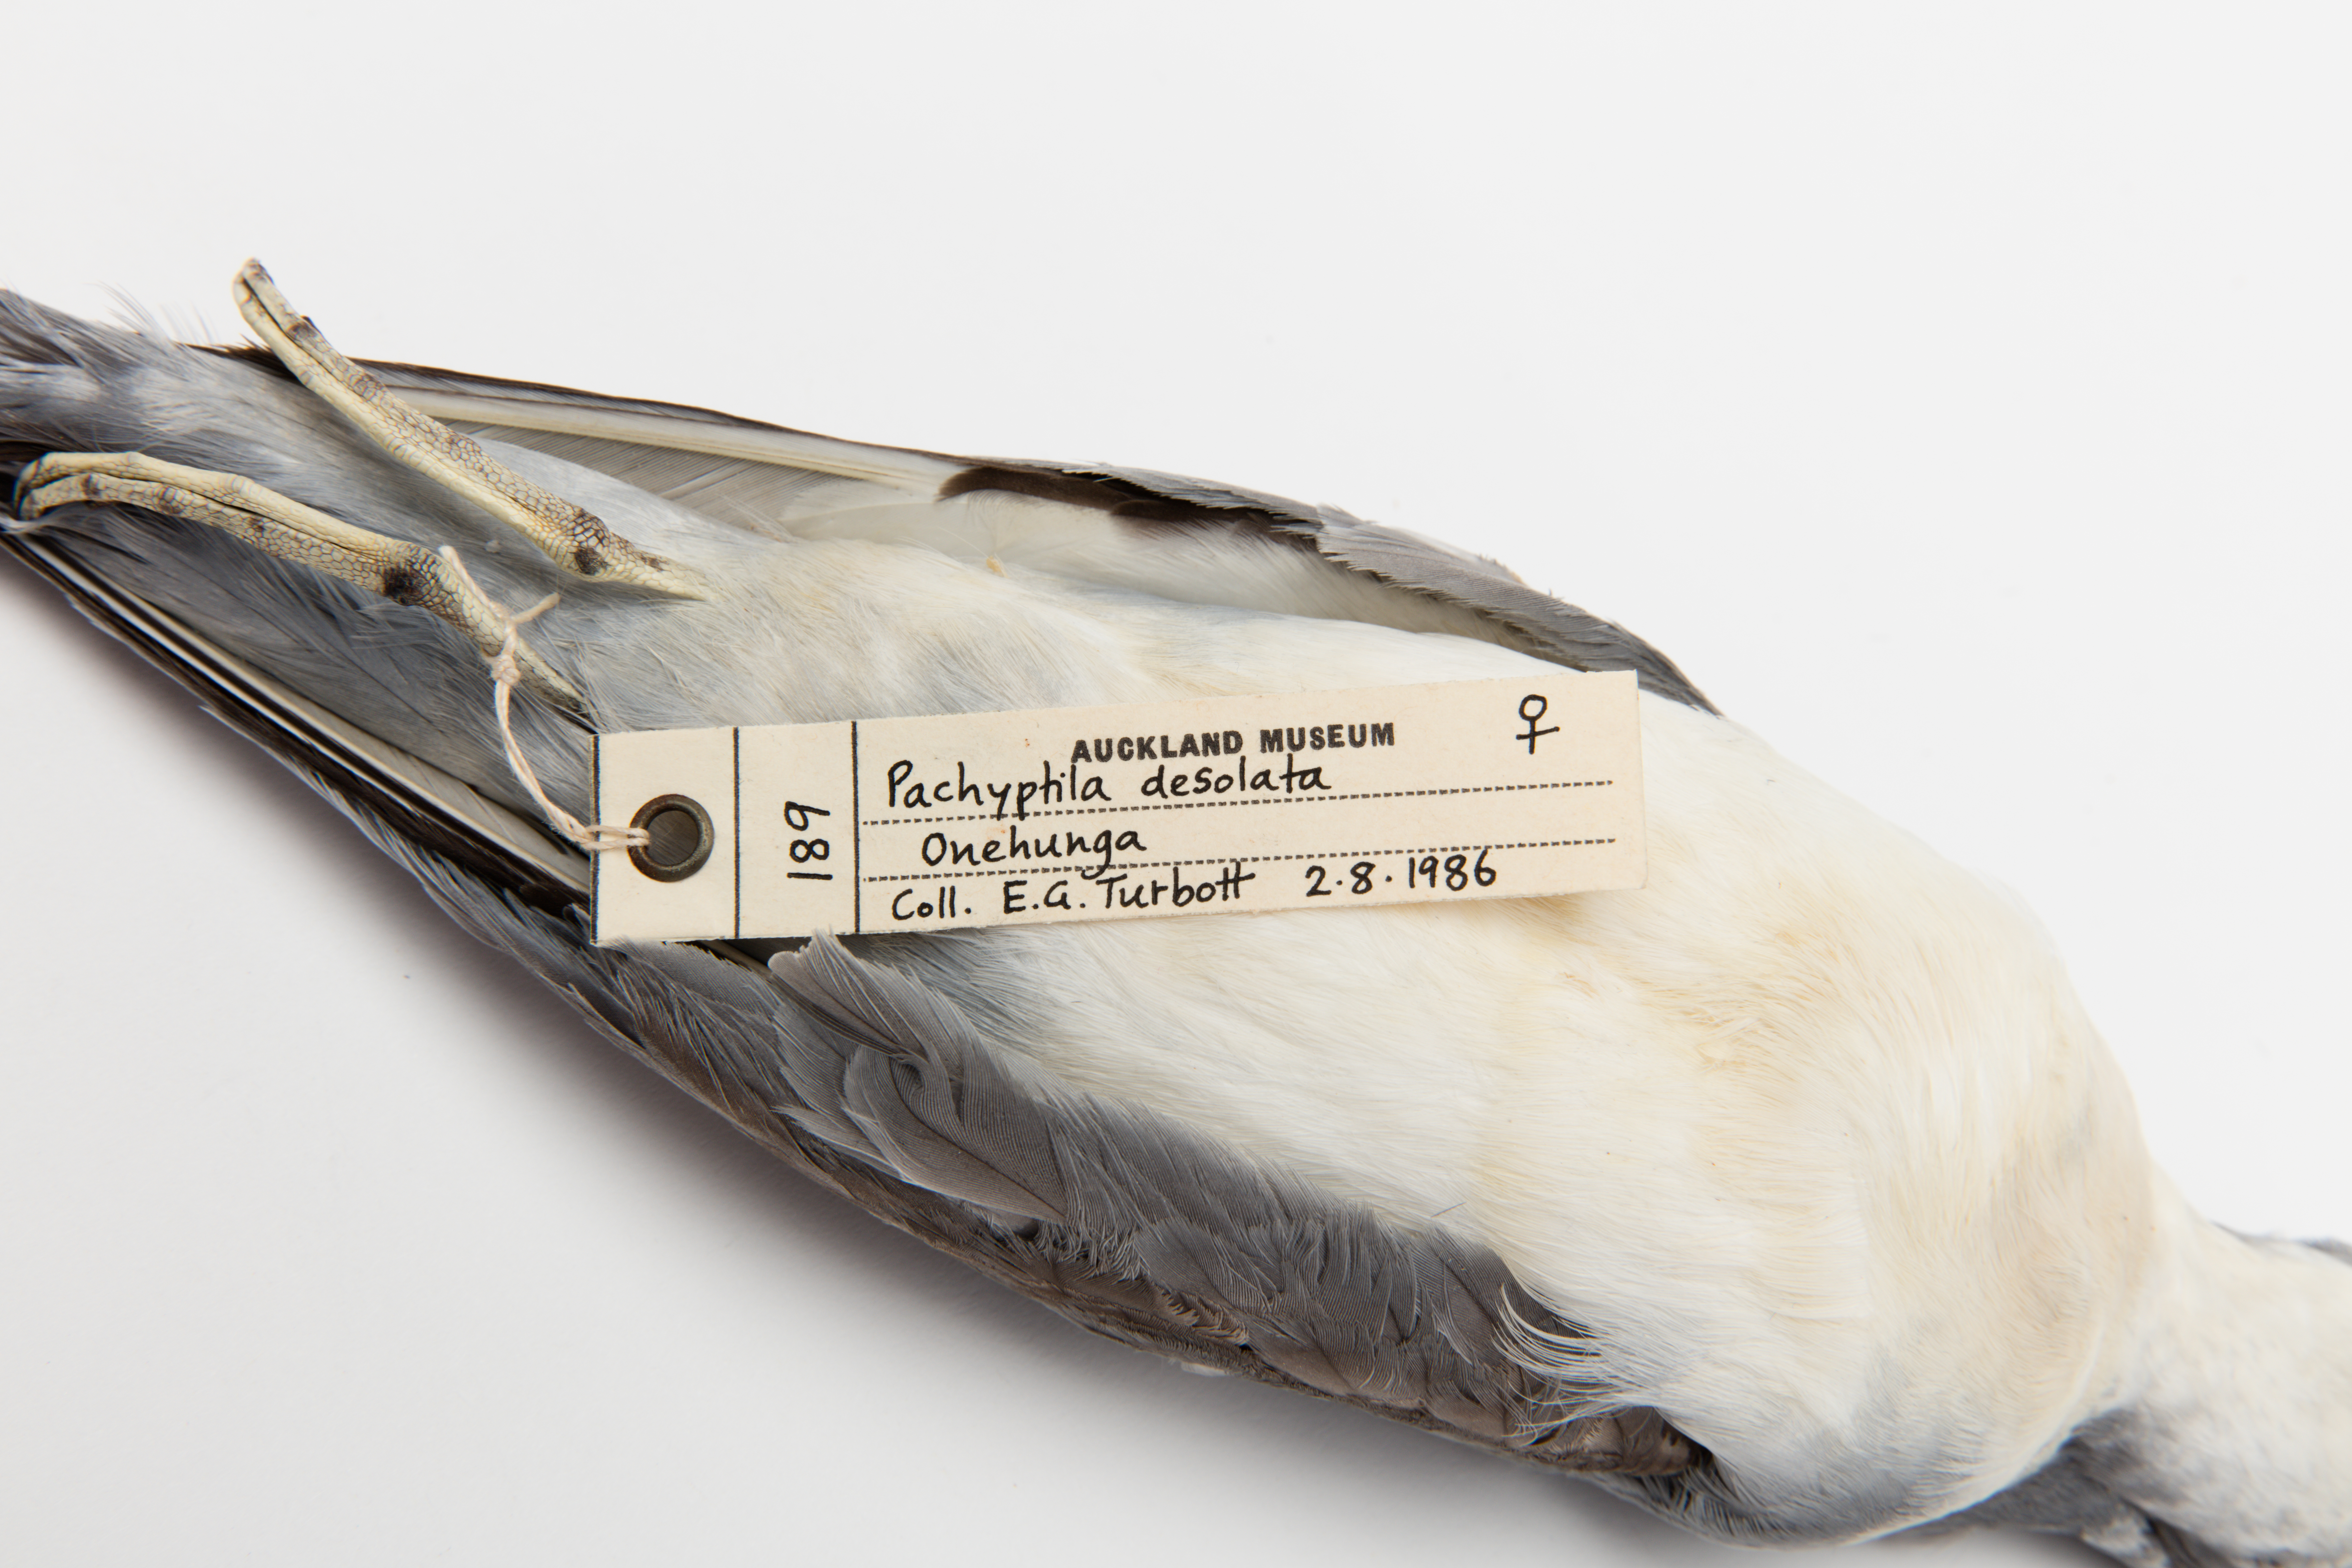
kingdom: Animalia
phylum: Chordata
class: Aves
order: Procellariiformes
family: Procellariidae
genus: Pachyptila
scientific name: Pachyptila desolata
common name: Antarctic prion
